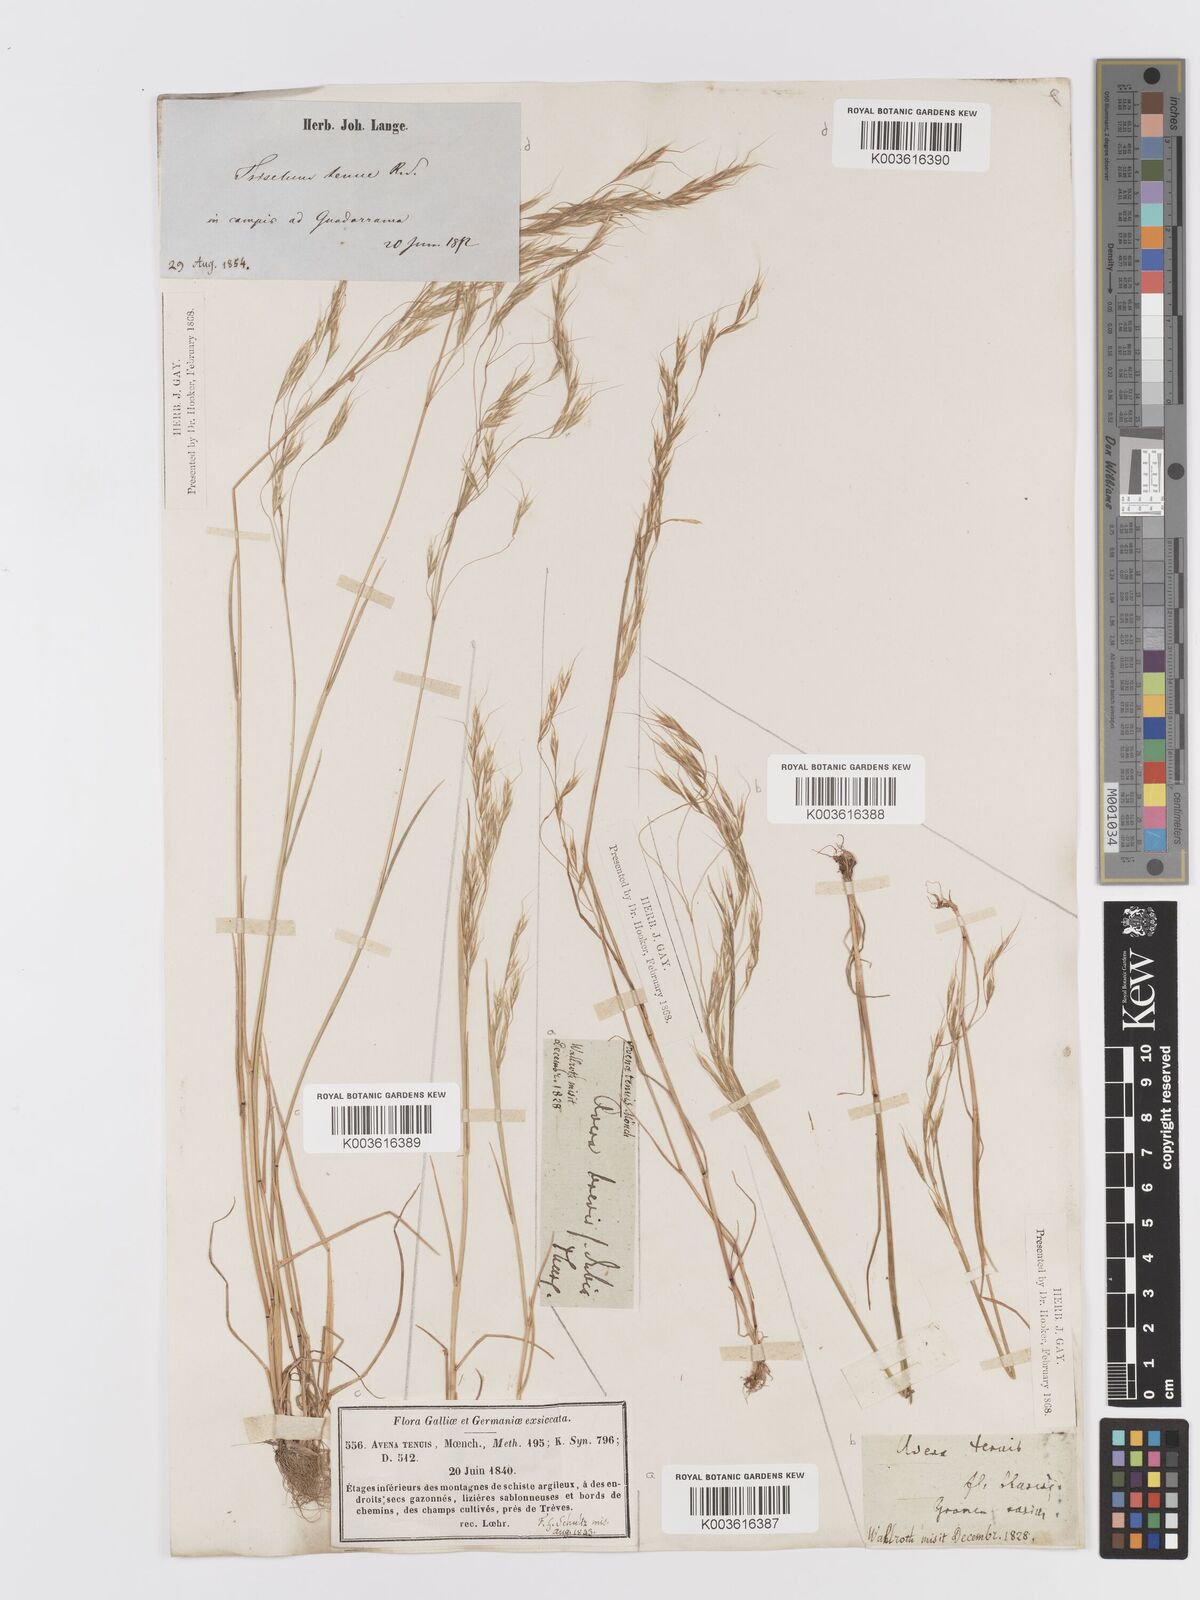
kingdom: Plantae
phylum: Tracheophyta
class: Liliopsida
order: Poales
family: Poaceae
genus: Ventenata
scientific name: Ventenata dubia
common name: North africa grass
